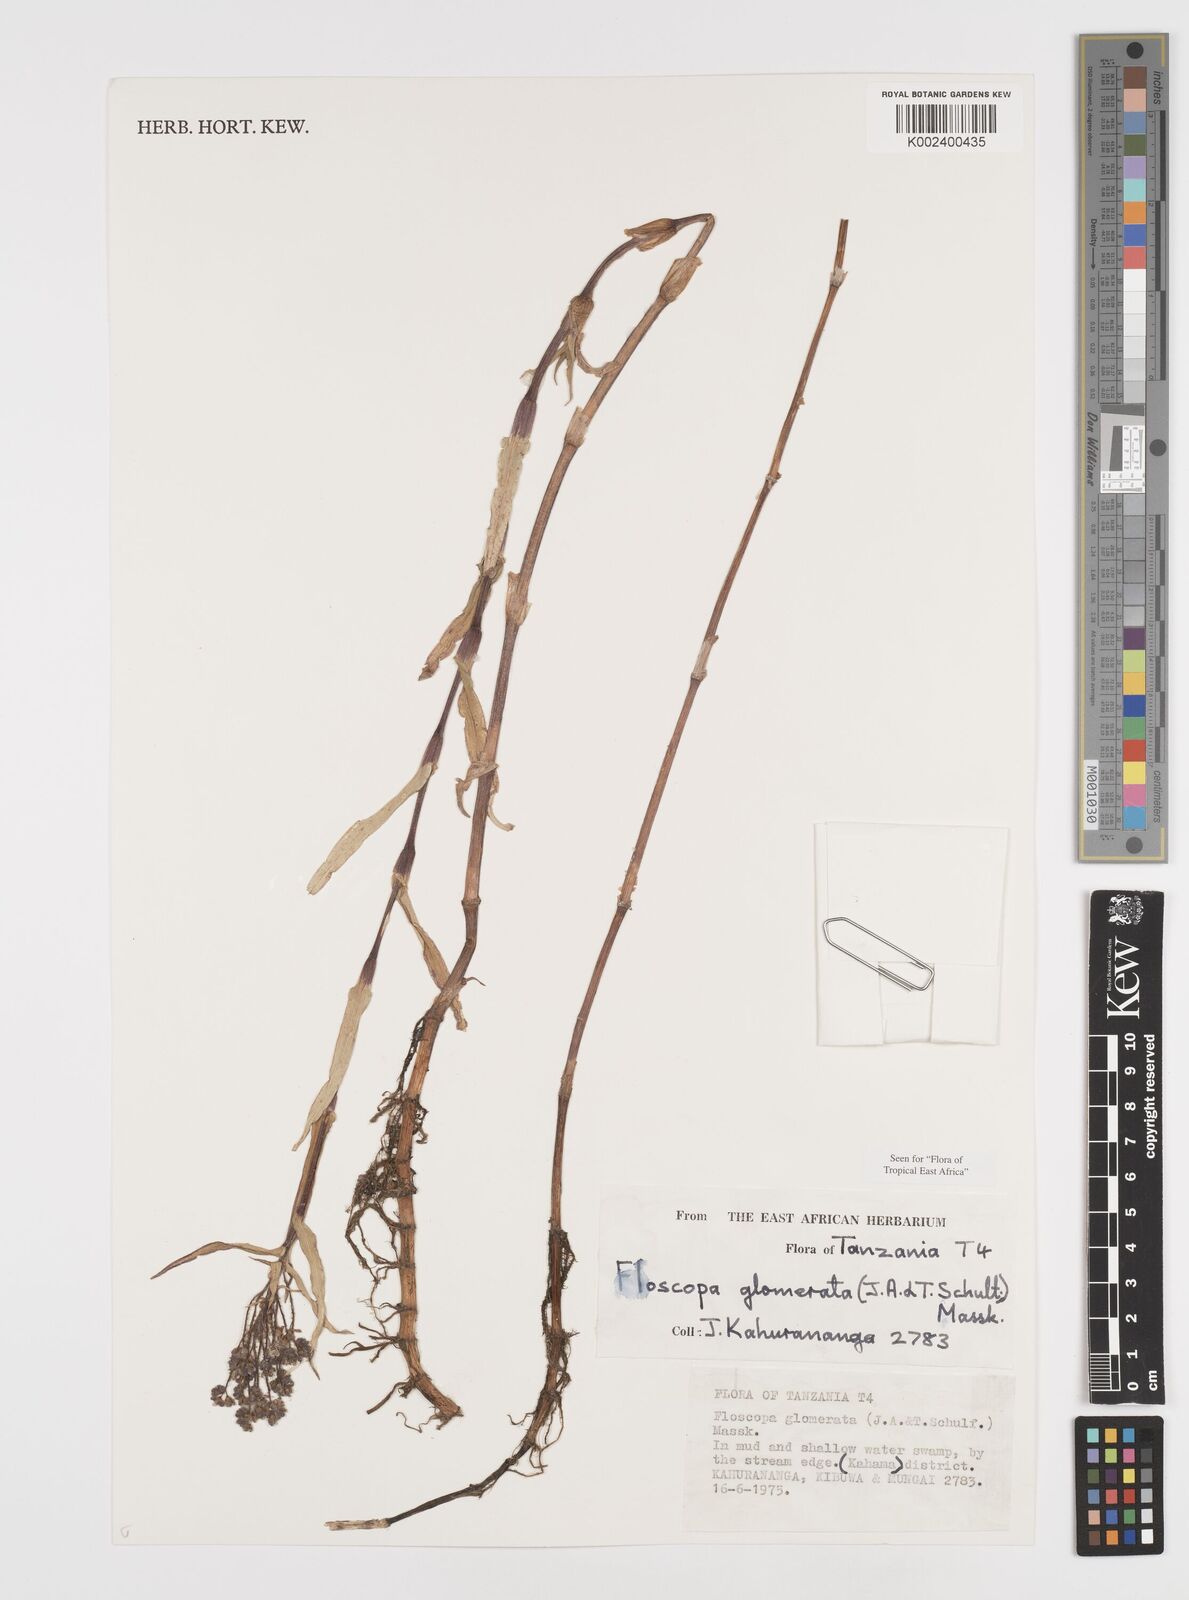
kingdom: Plantae
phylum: Tracheophyta
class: Liliopsida
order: Commelinales
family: Commelinaceae
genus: Floscopa
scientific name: Floscopa glomerata
